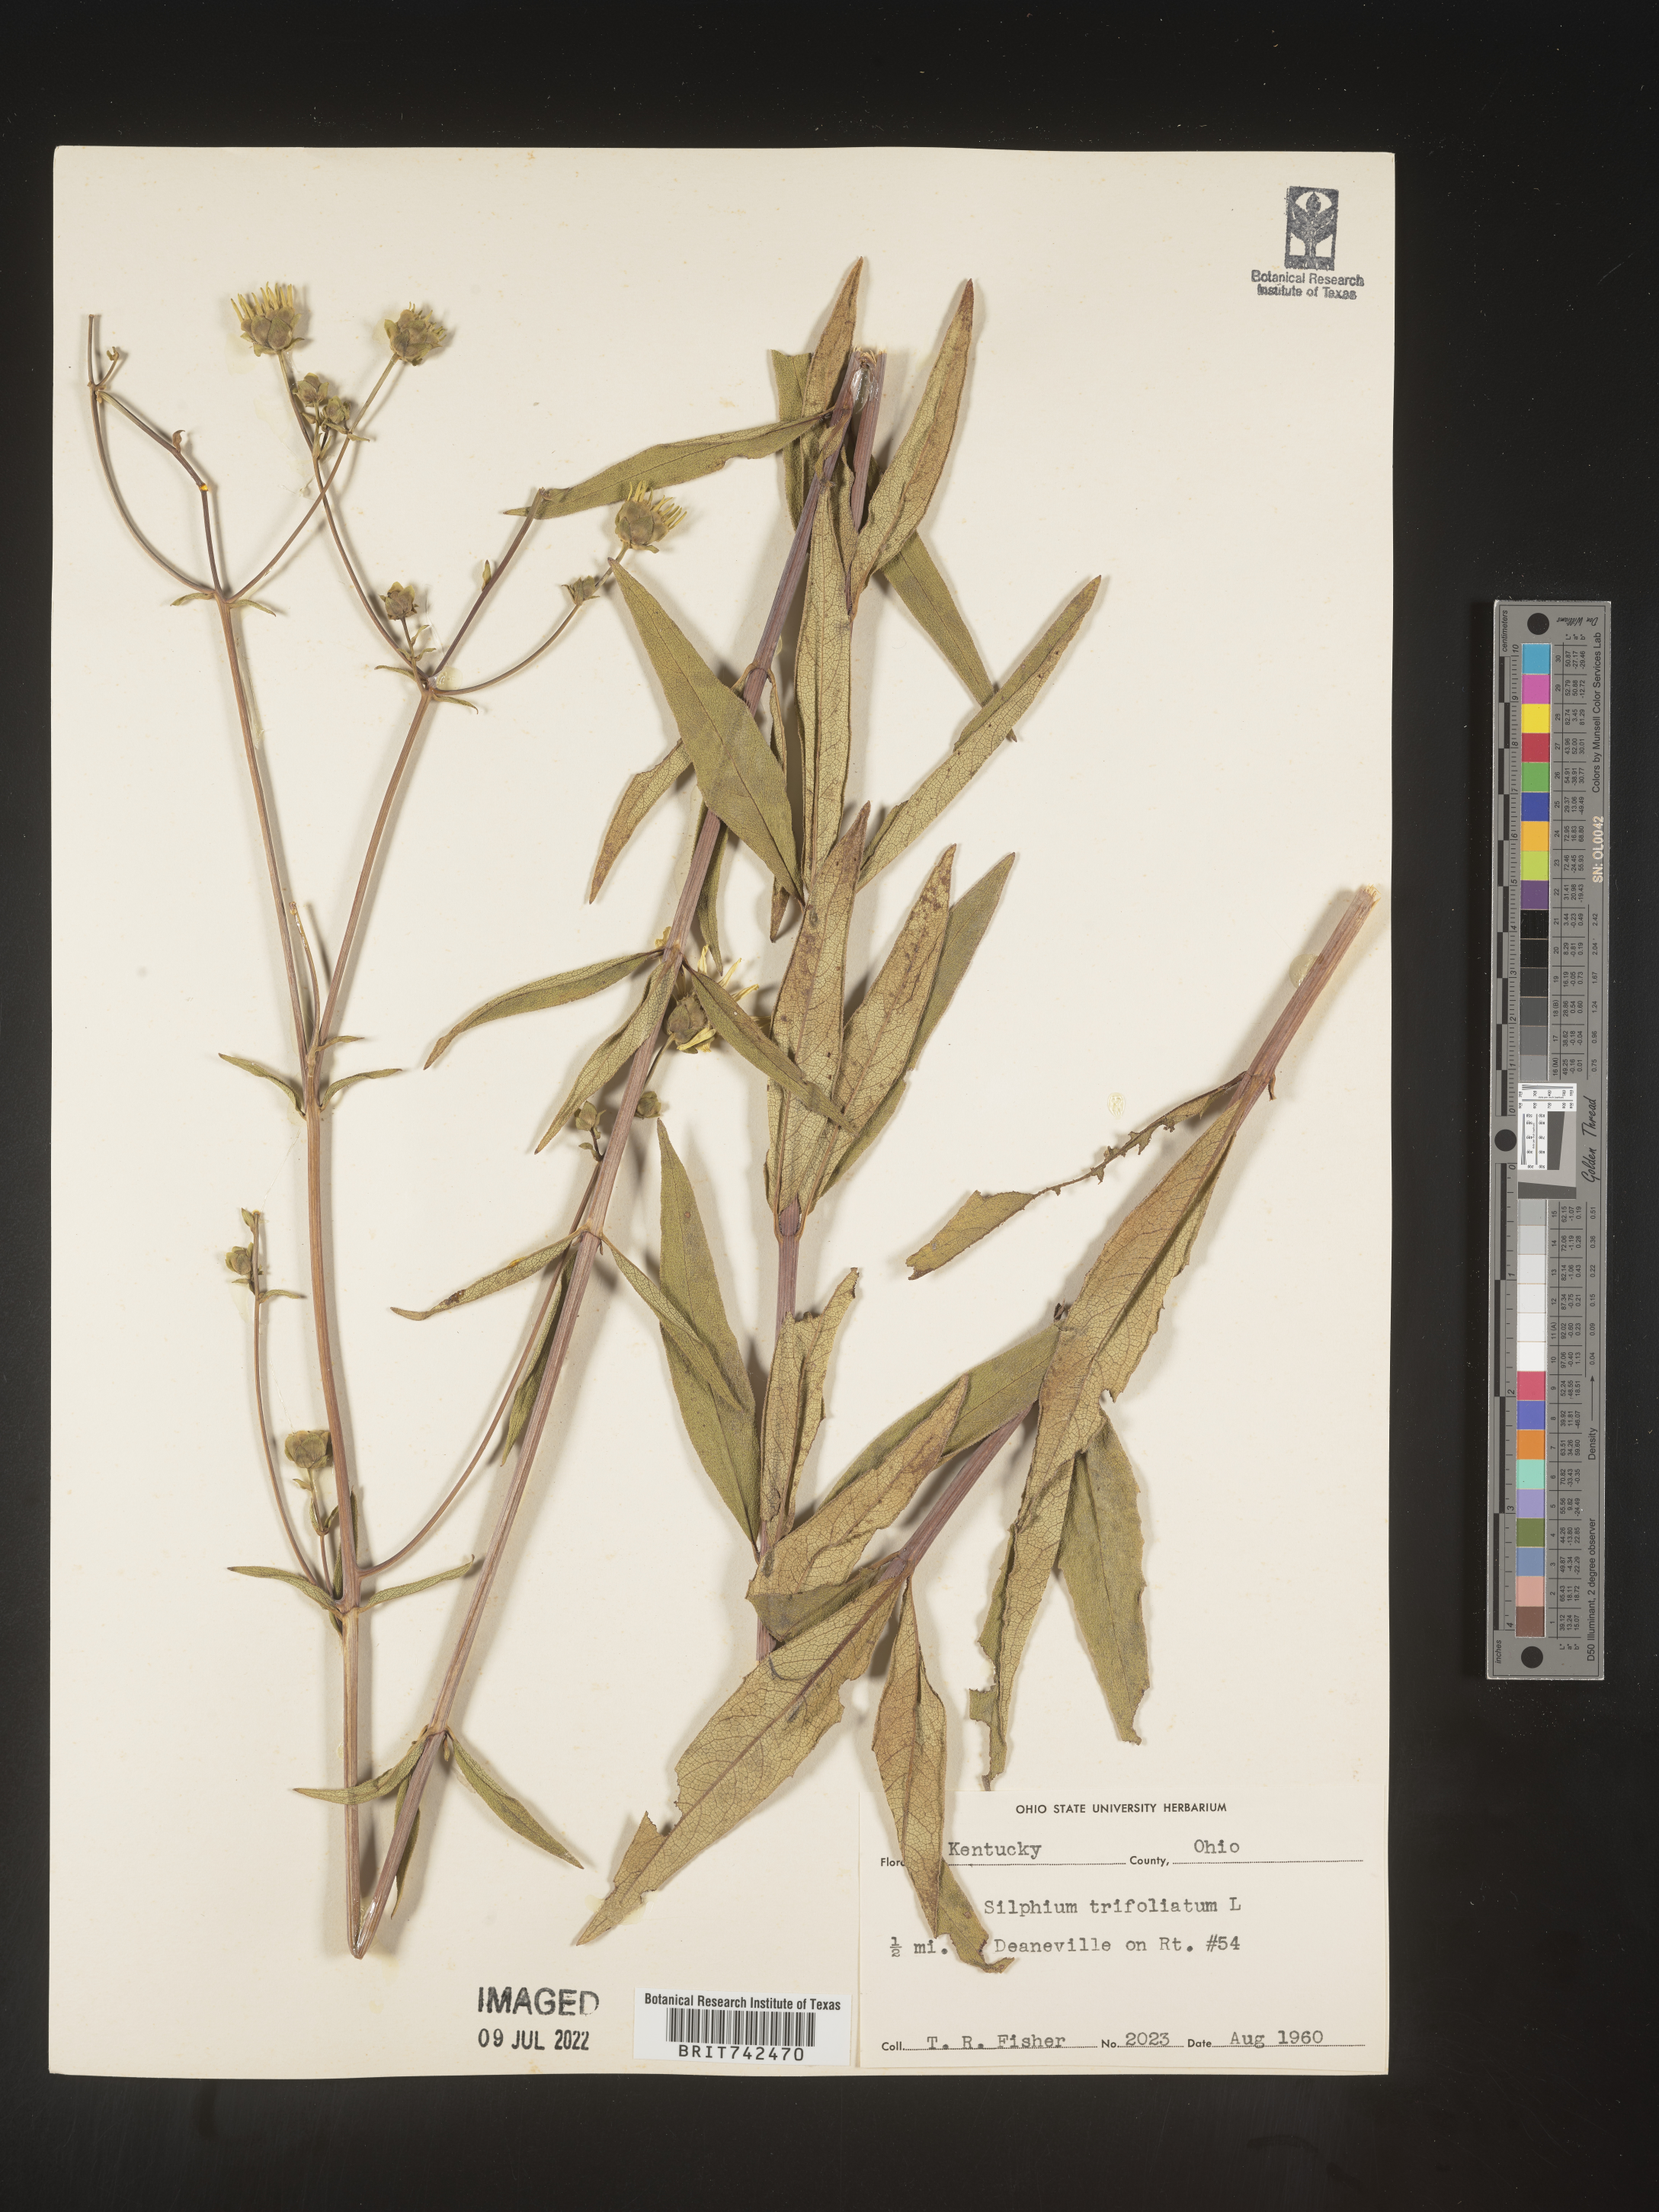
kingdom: Plantae
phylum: Tracheophyta
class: Magnoliopsida
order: Asterales
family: Asteraceae
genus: Silphium
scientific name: Silphium asteriscus
